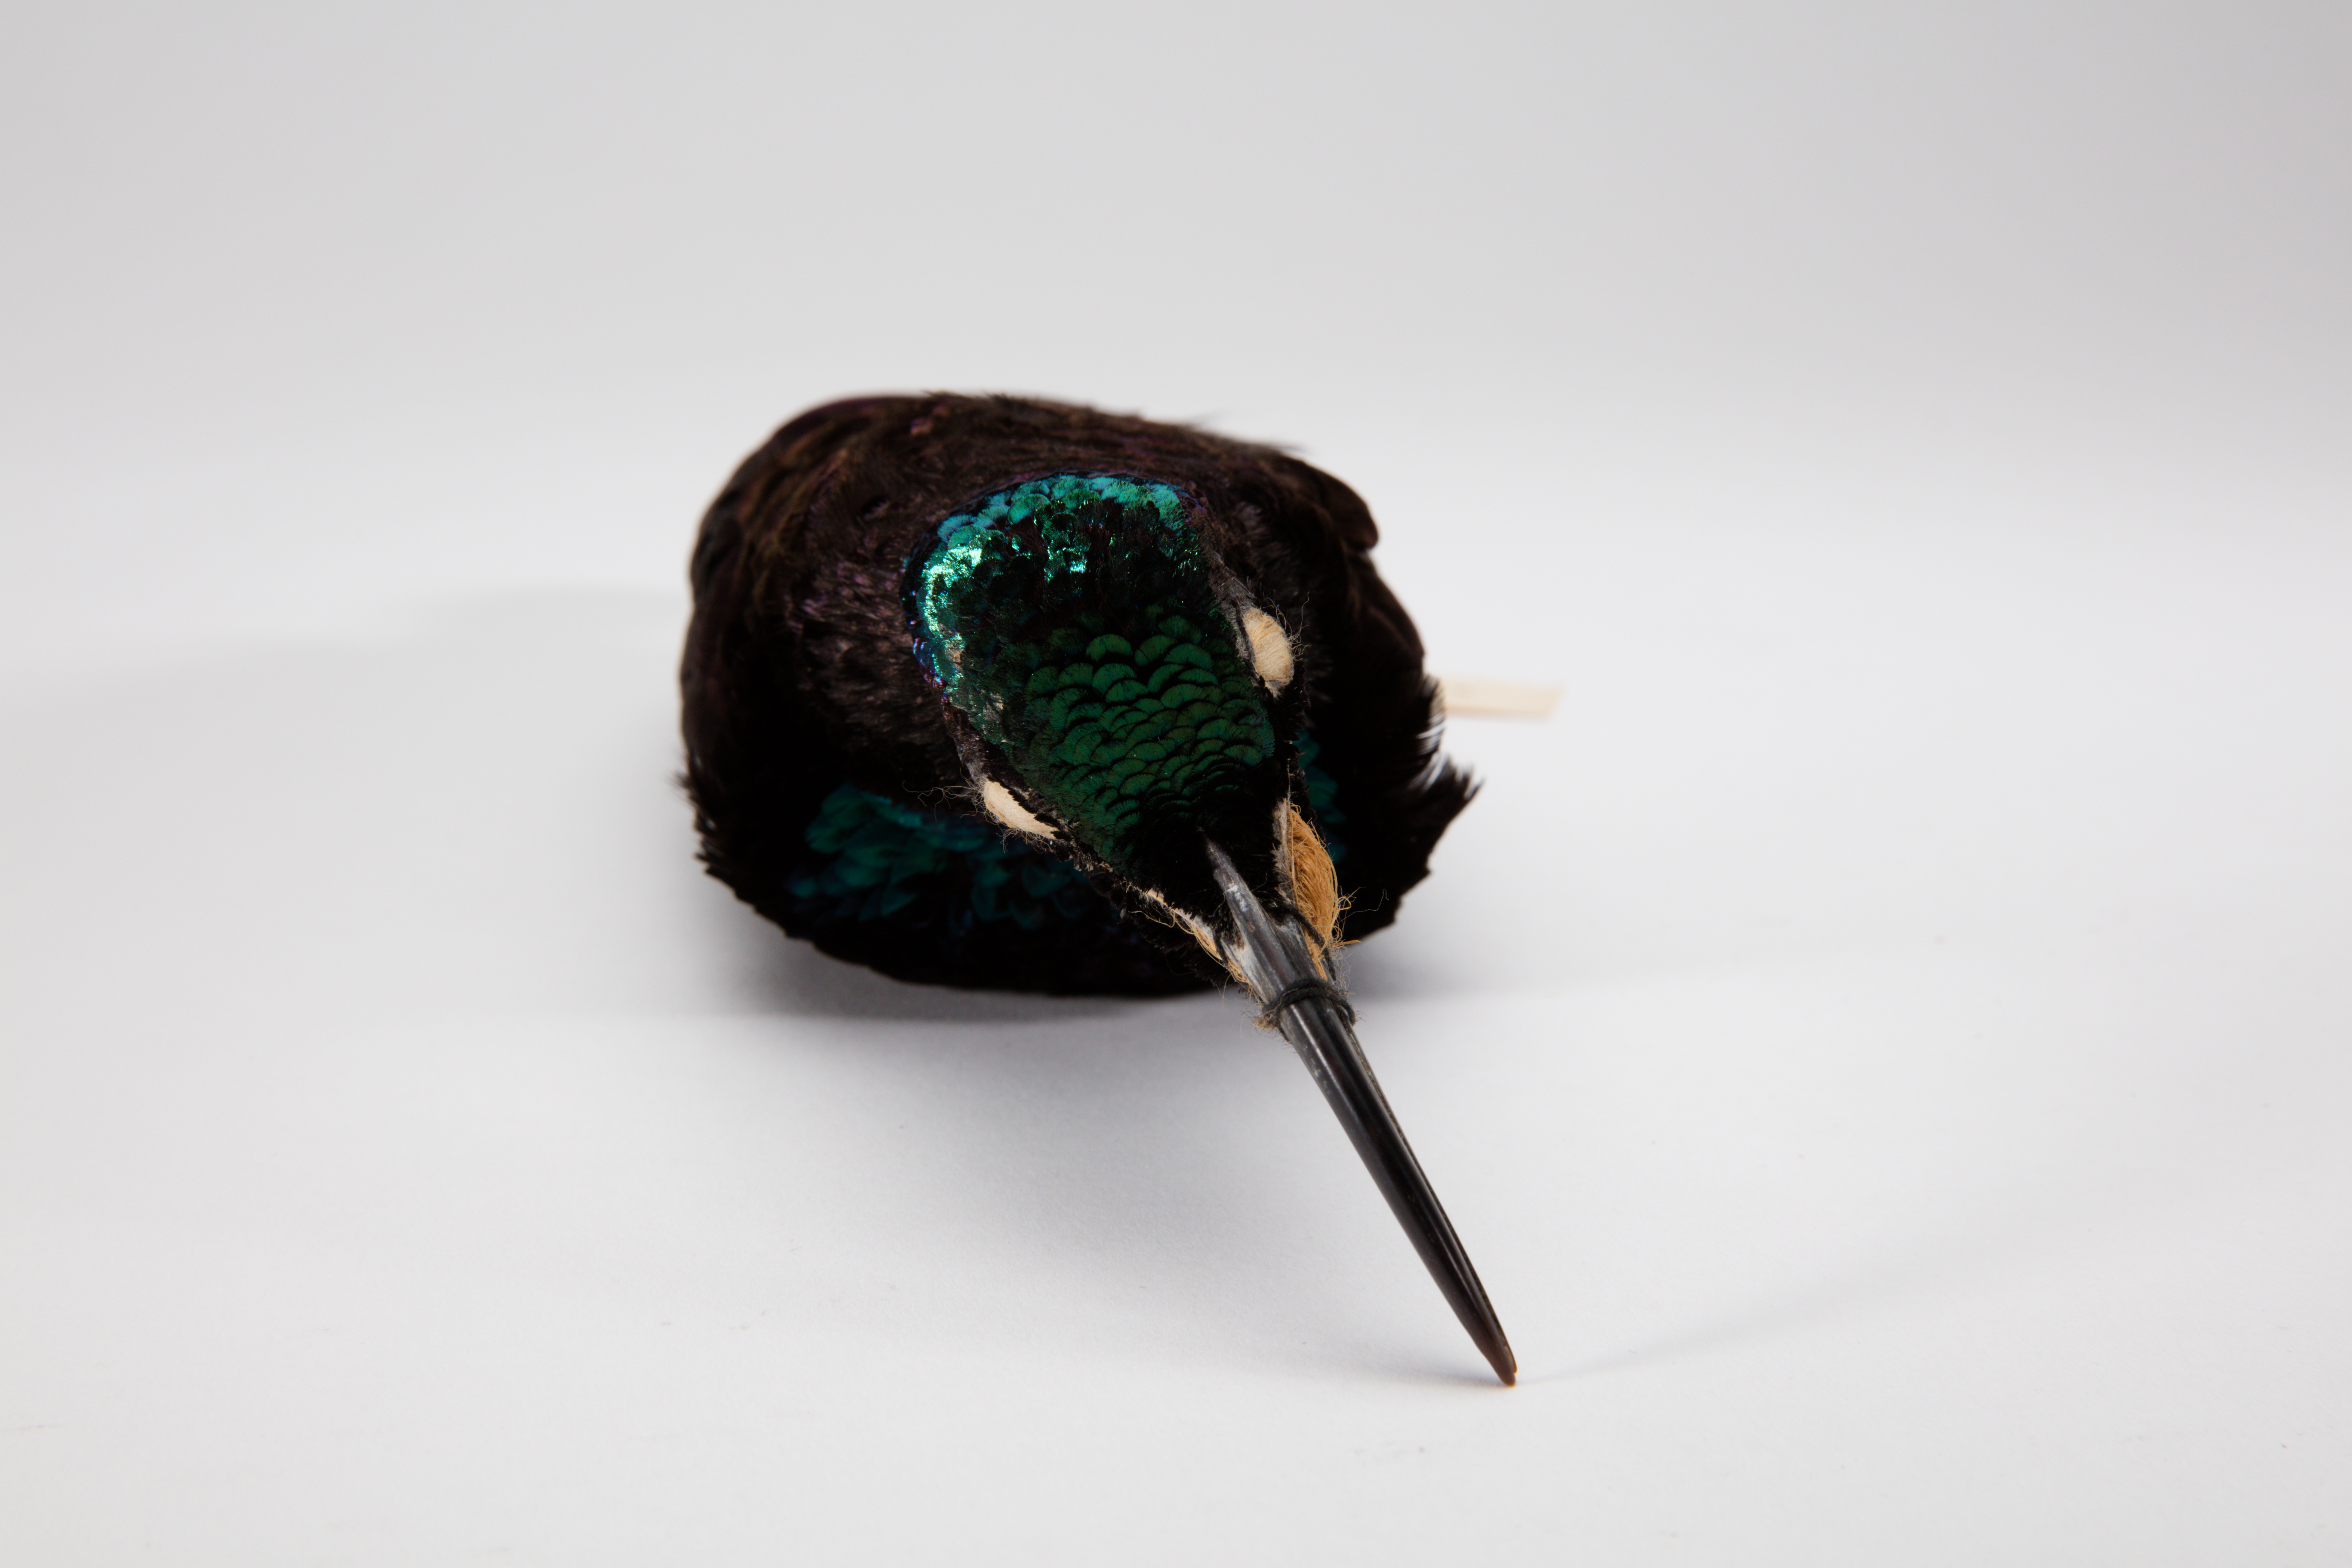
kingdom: Animalia
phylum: Chordata
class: Aves
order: Passeriformes
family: Paradisaeidae
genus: Ptiloris
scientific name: Ptiloris paradiseus
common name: Paradise riflebird
